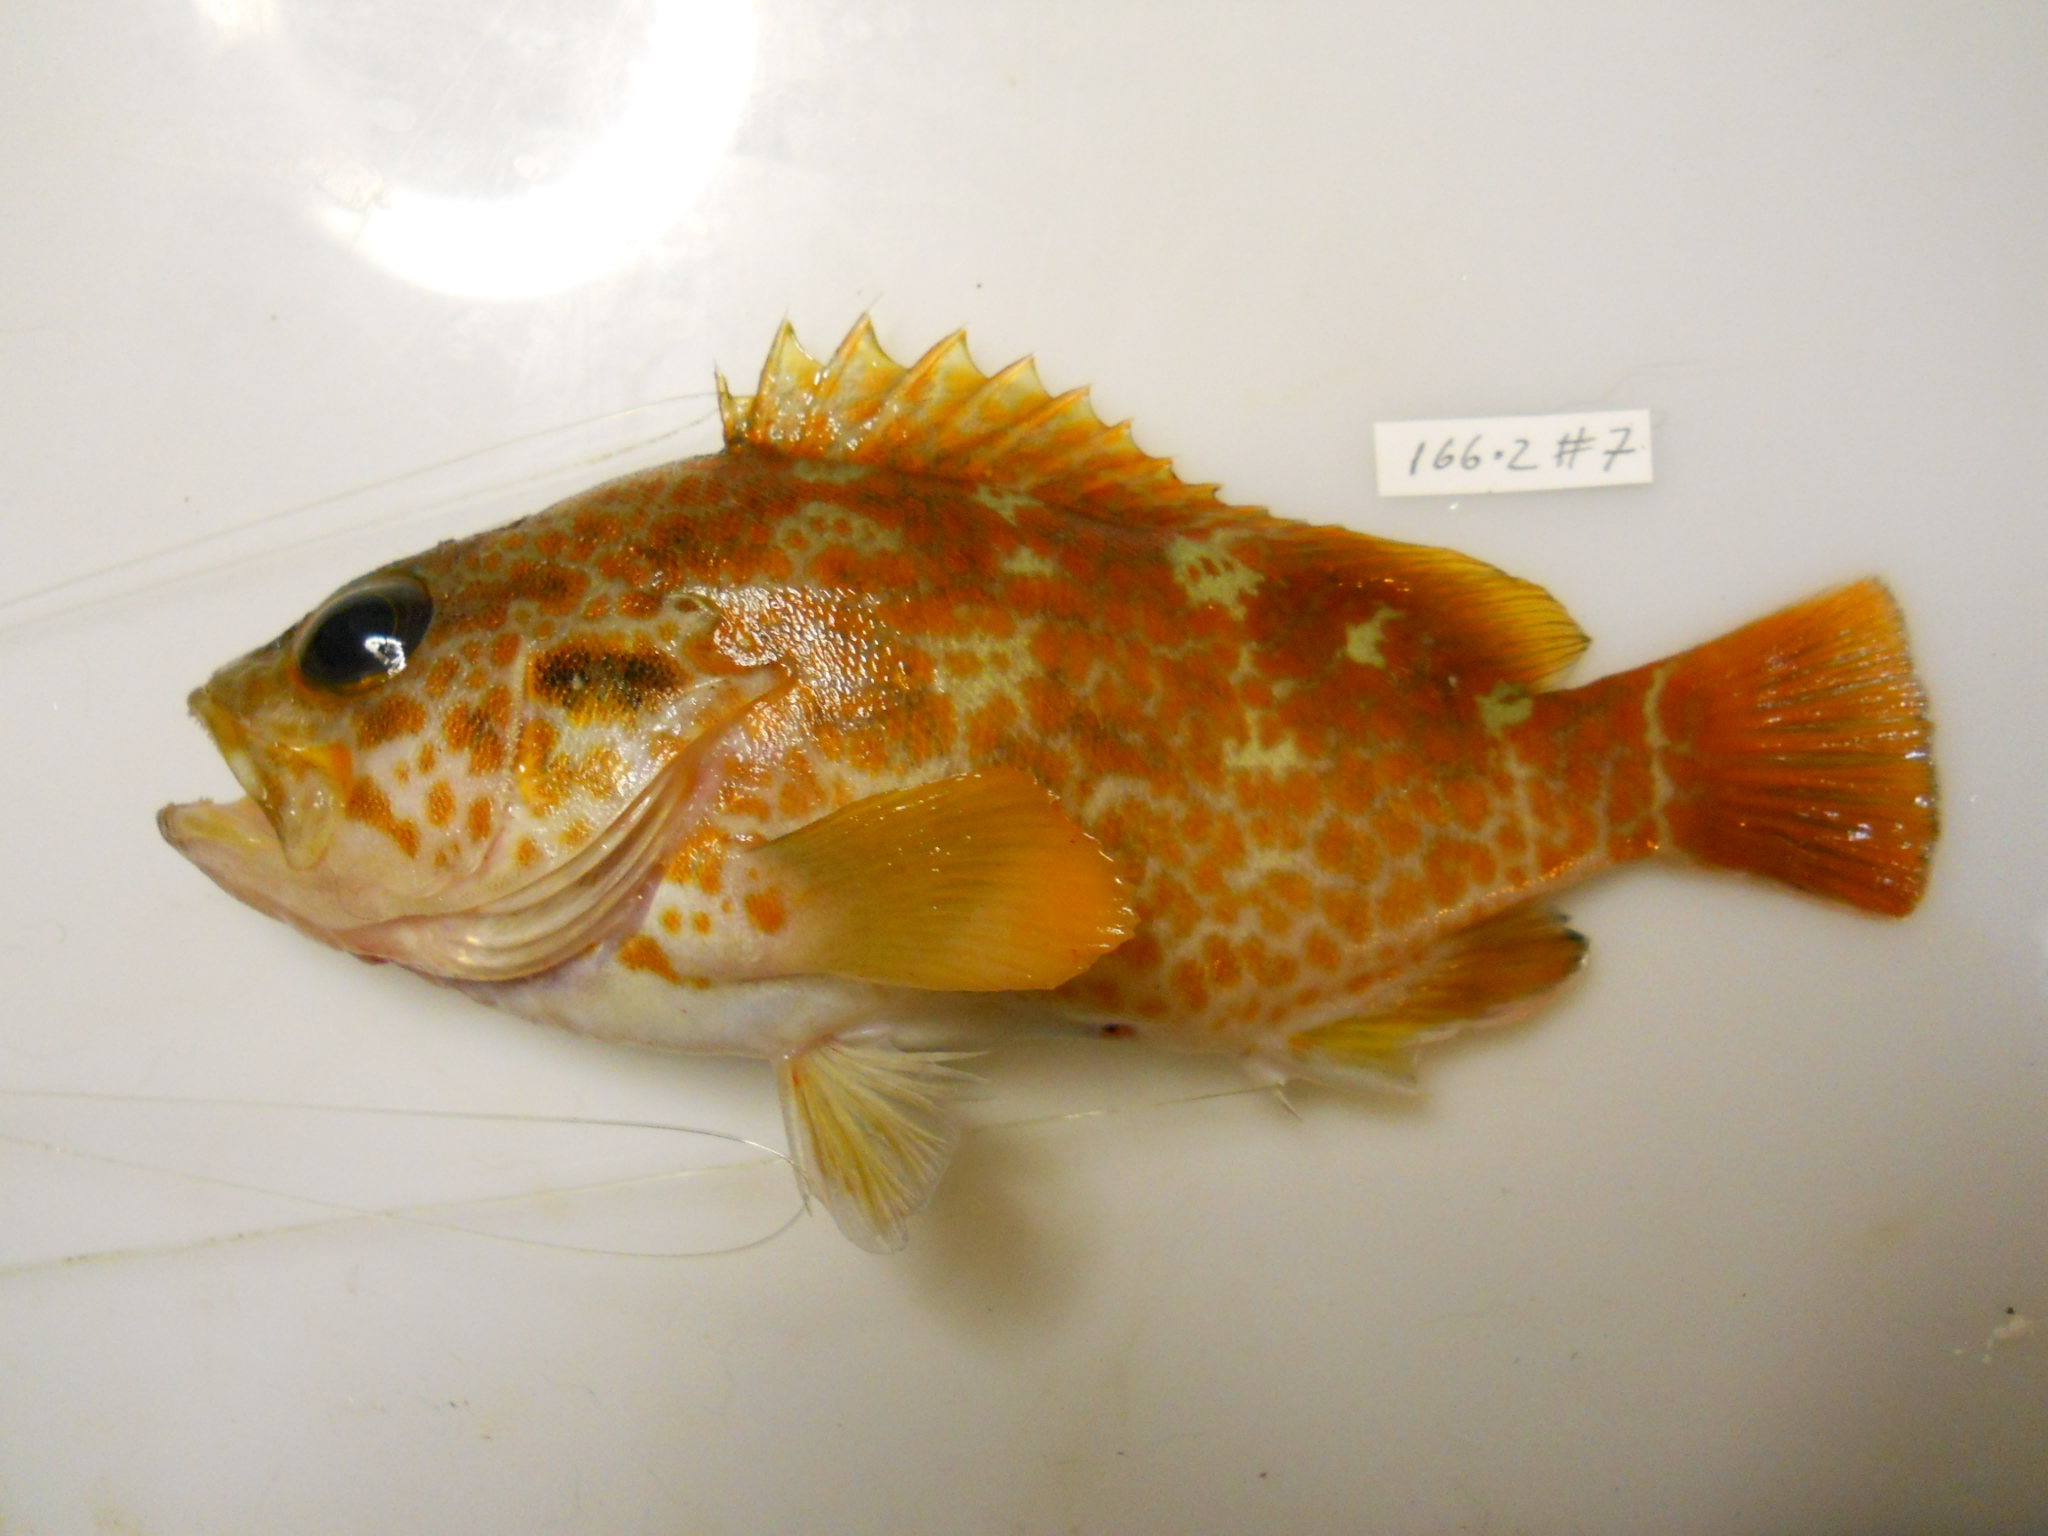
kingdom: Animalia
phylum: Chordata
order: Perciformes
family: Serranidae
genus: Acanthistius
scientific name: Acanthistius joanae
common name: Scalyjaw koester
